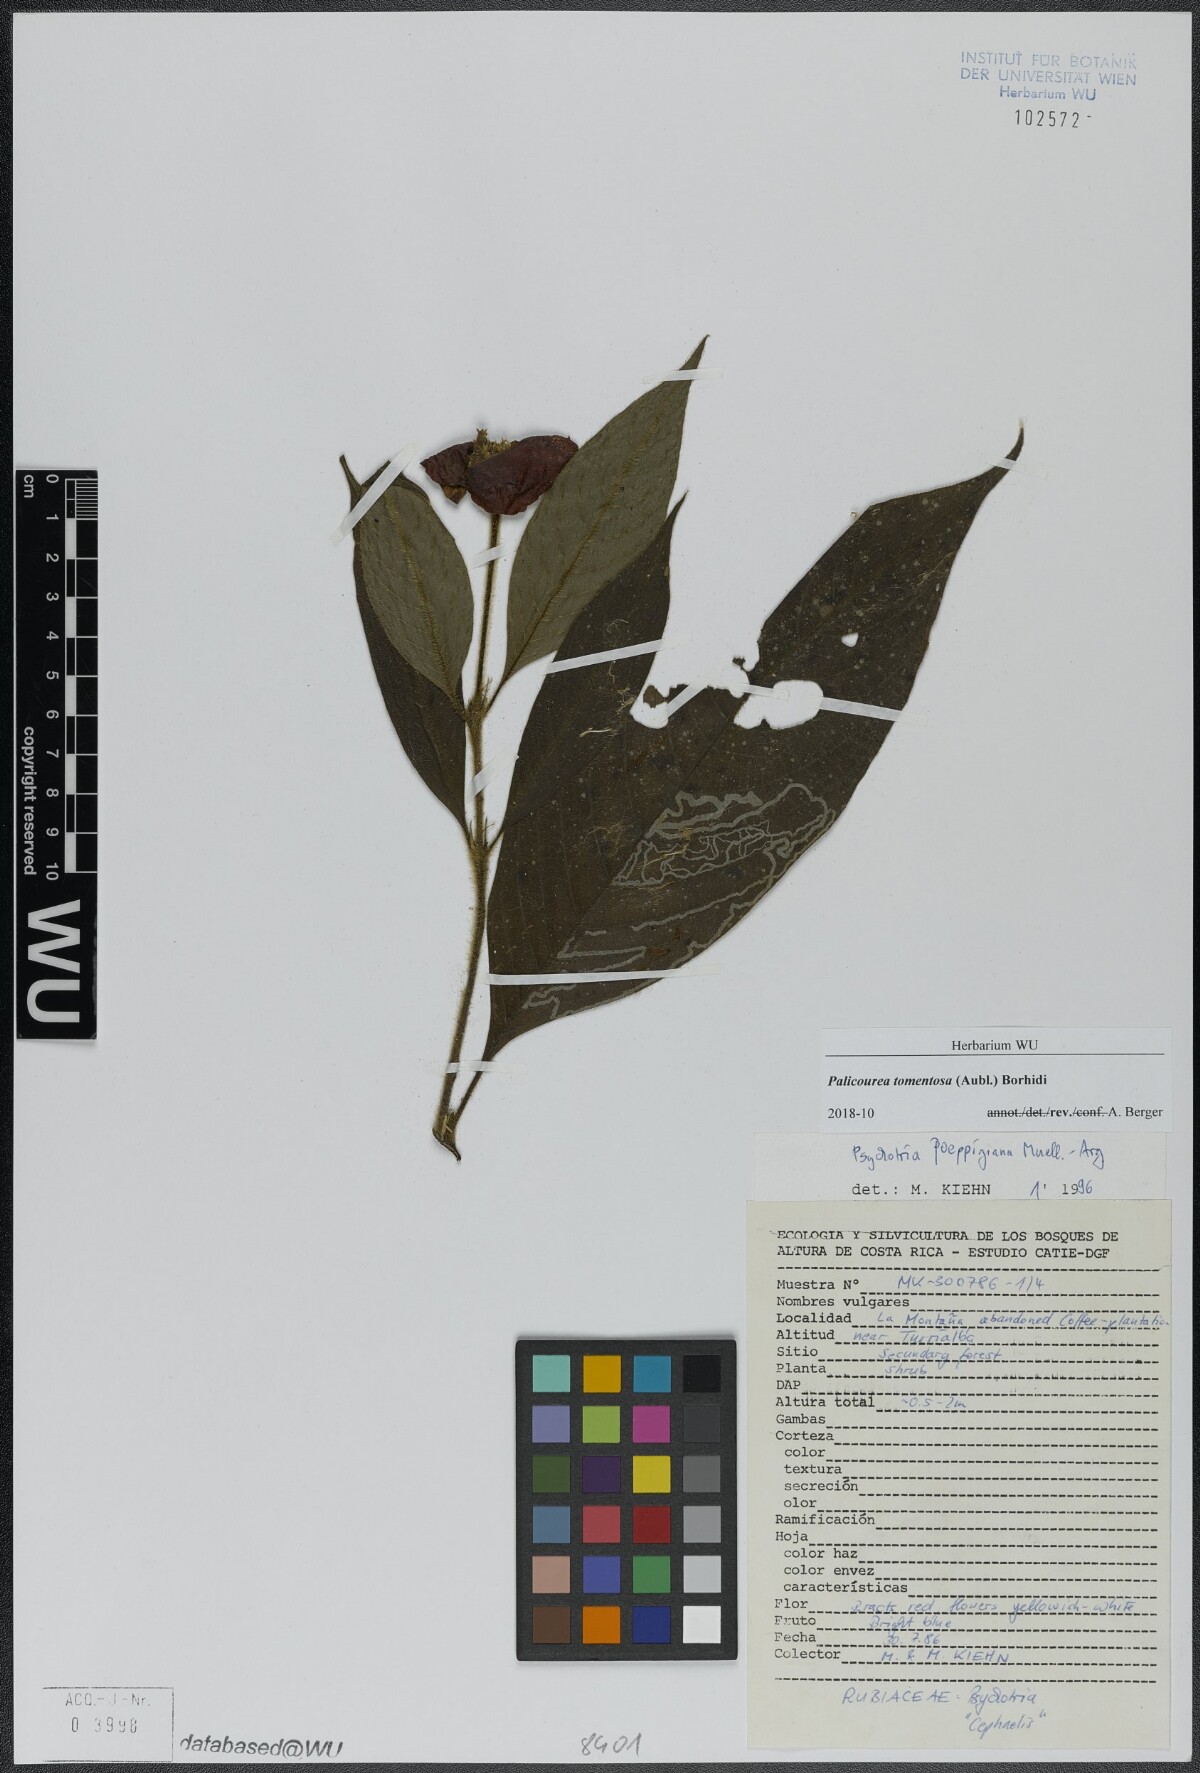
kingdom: Plantae
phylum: Tracheophyta
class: Magnoliopsida
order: Gentianales
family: Rubiaceae
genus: Palicourea
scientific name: Palicourea tomentosa
